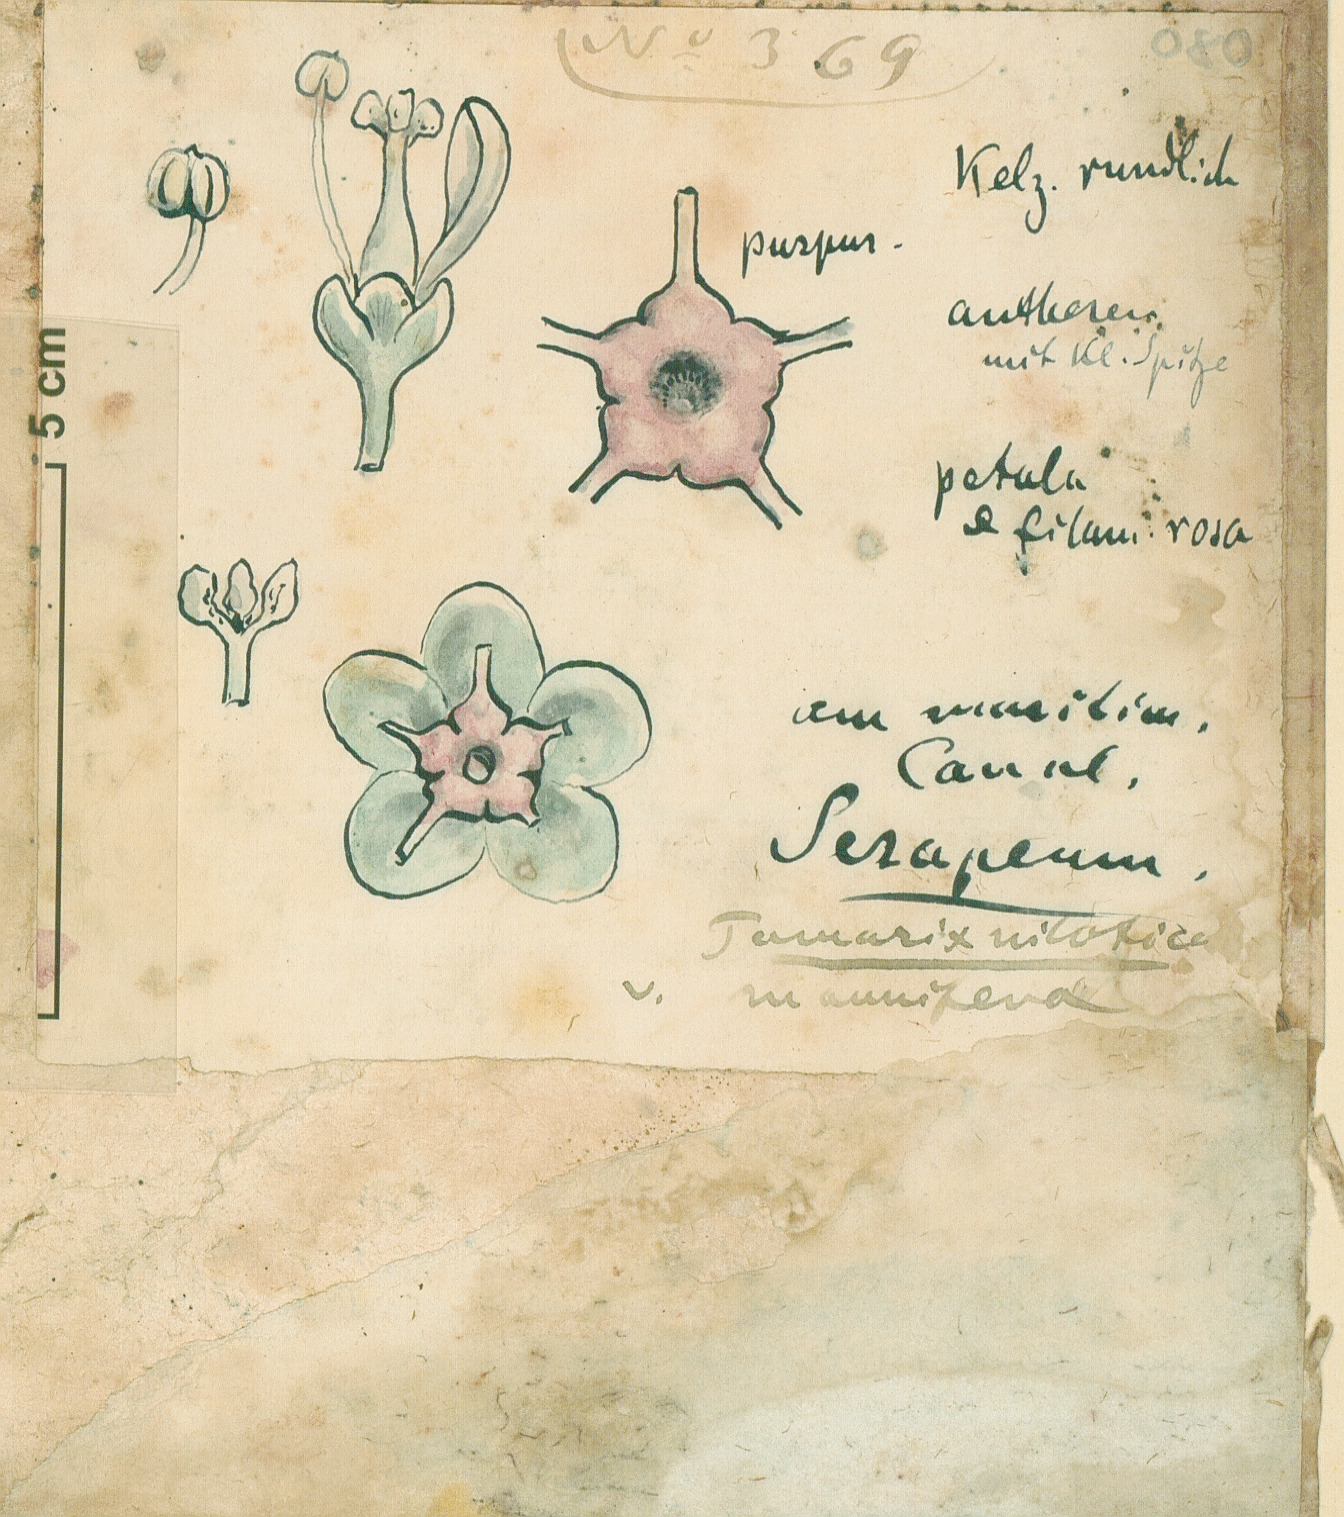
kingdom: Plantae
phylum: Tracheophyta
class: Magnoliopsida
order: Caryophyllales
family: Tamaricaceae
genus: Tamarix
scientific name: Tamarix nilotica
